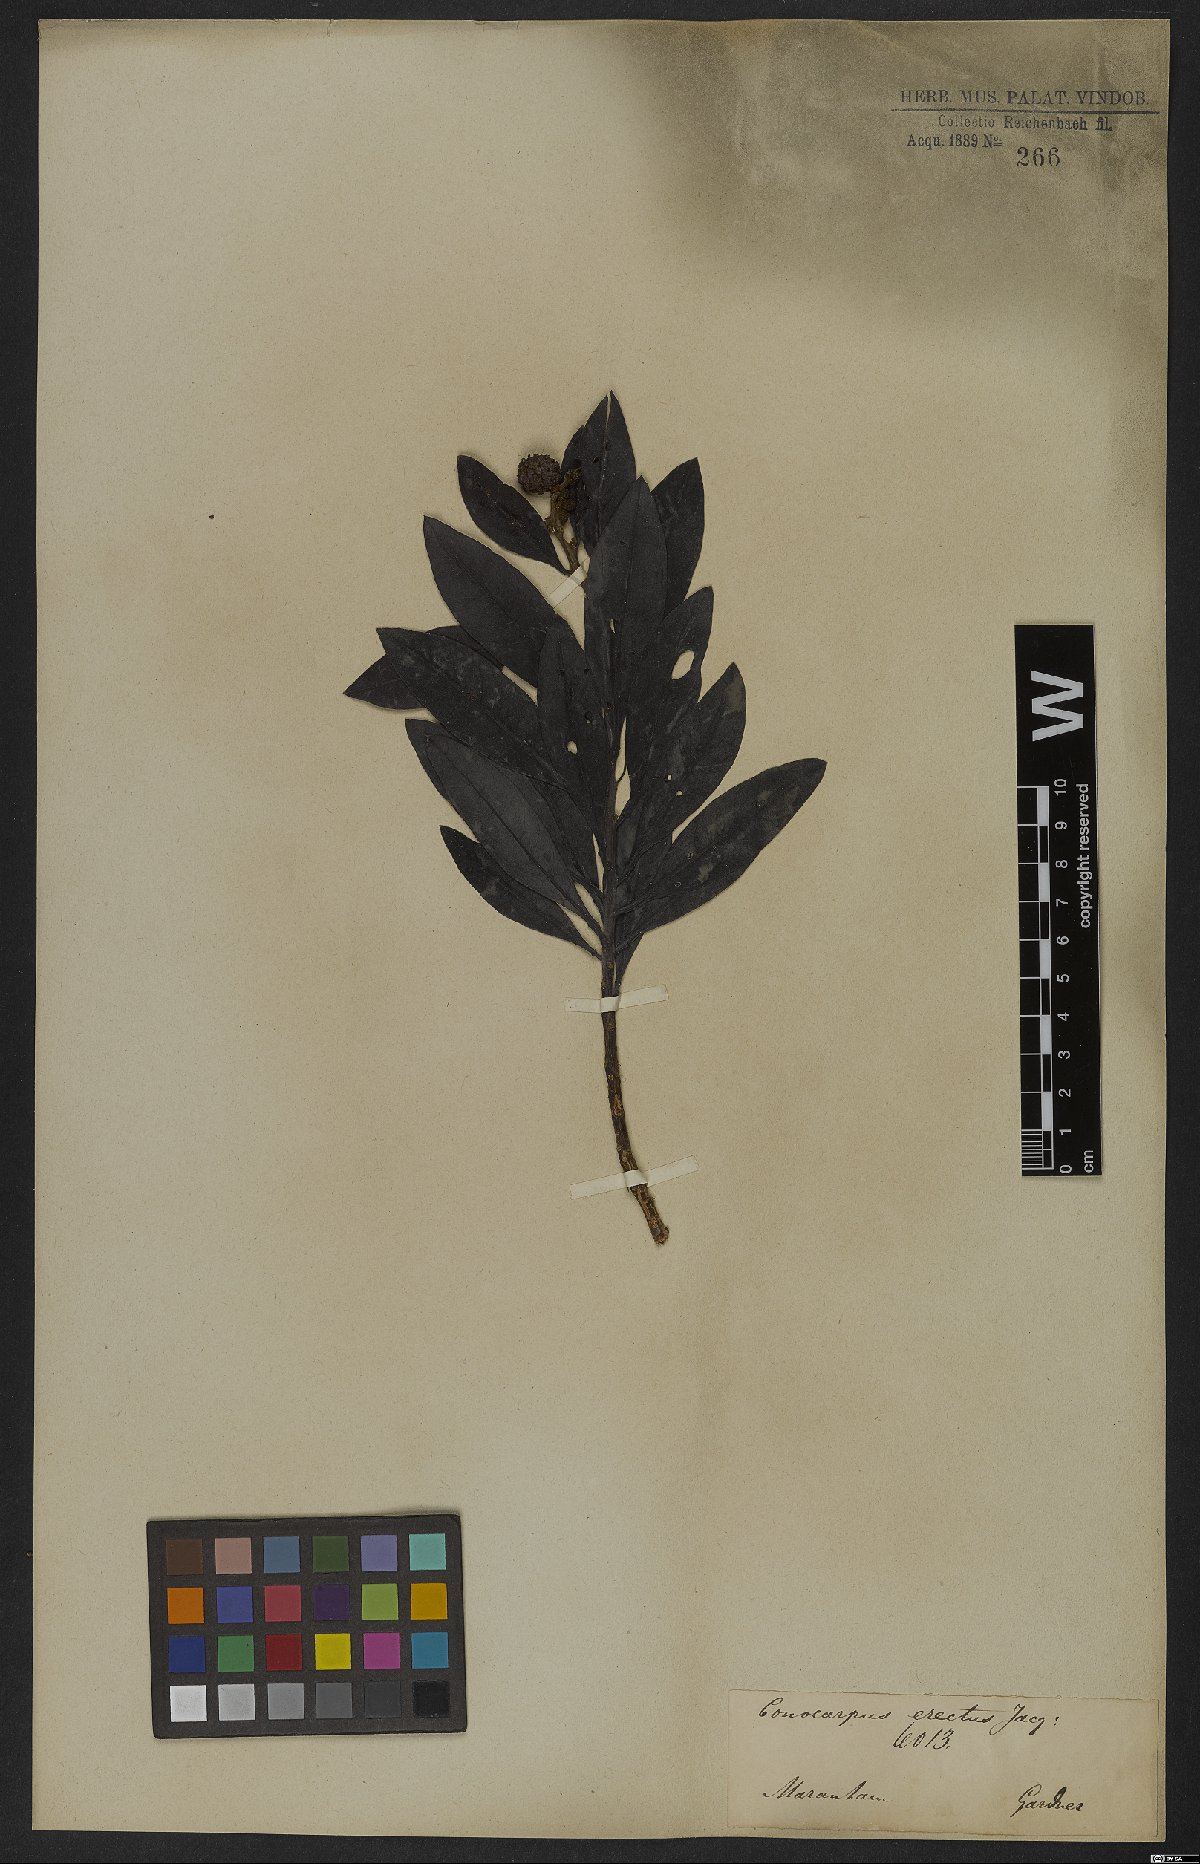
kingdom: Plantae
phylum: Tracheophyta
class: Magnoliopsida
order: Myrtales
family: Combretaceae
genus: Conocarpus
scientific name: Conocarpus erectus
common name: Button mangrove
